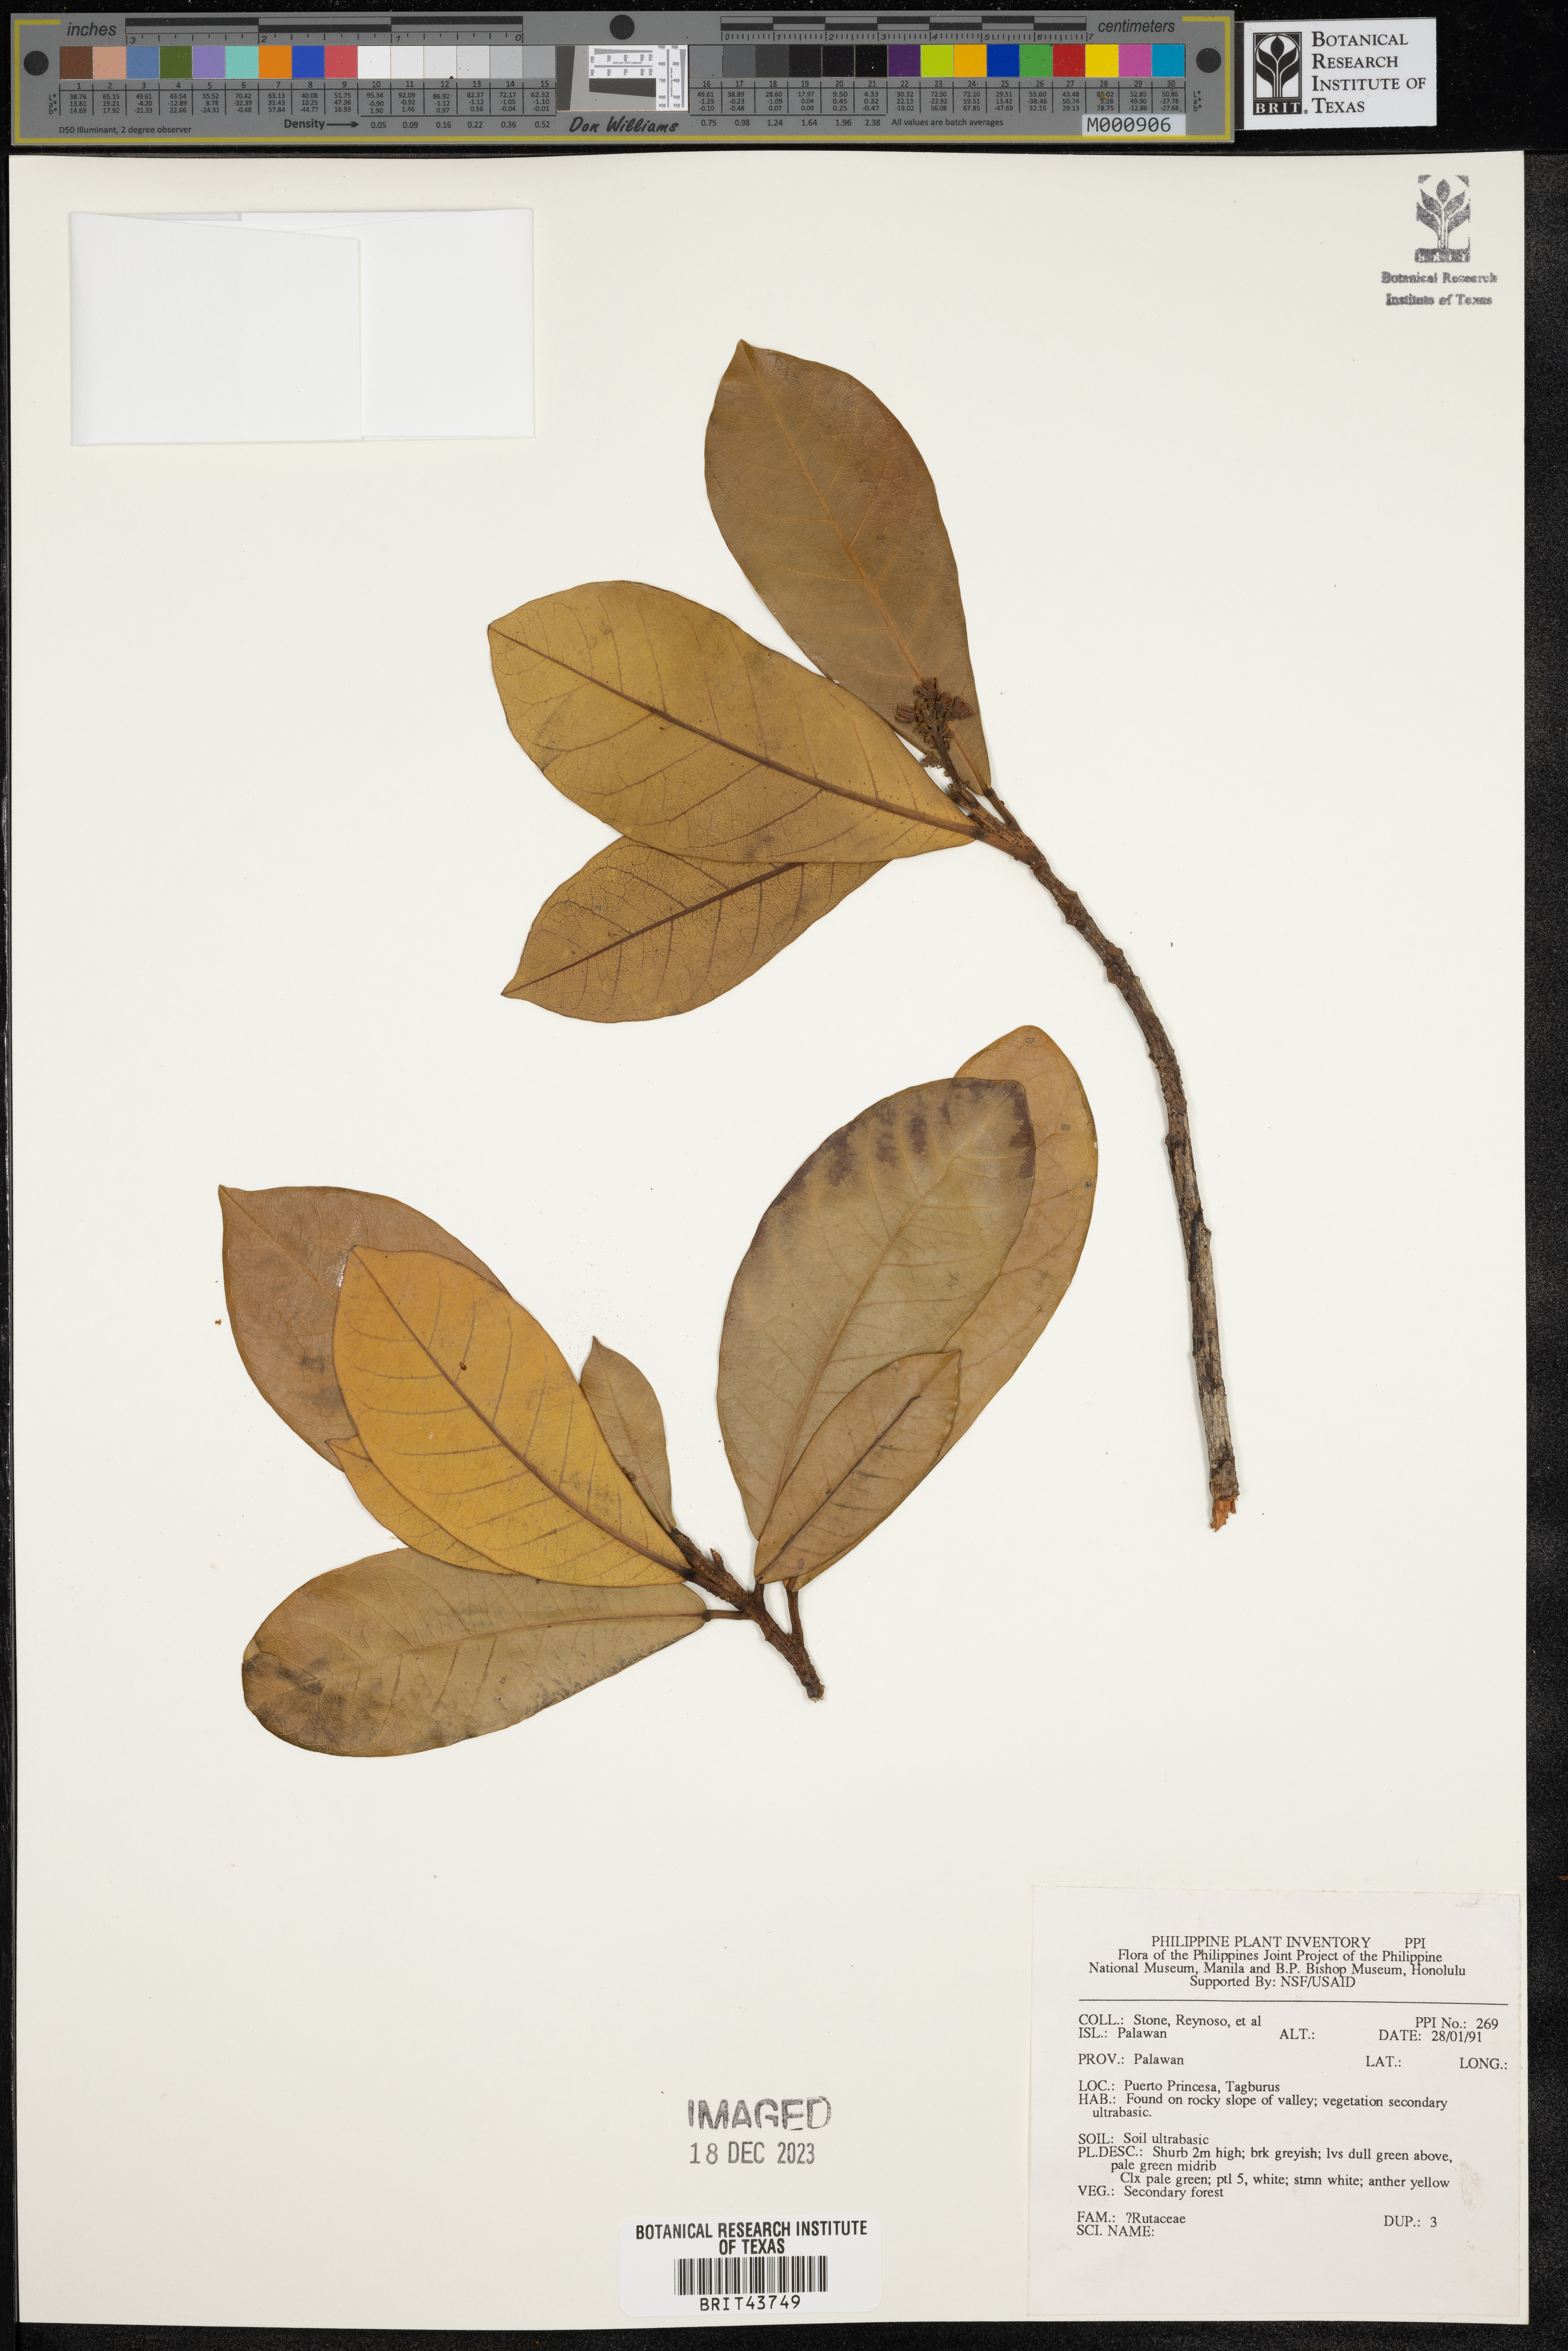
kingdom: Plantae
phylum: Tracheophyta
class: Magnoliopsida
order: Sapindales
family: Rutaceae
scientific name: Rutaceae
